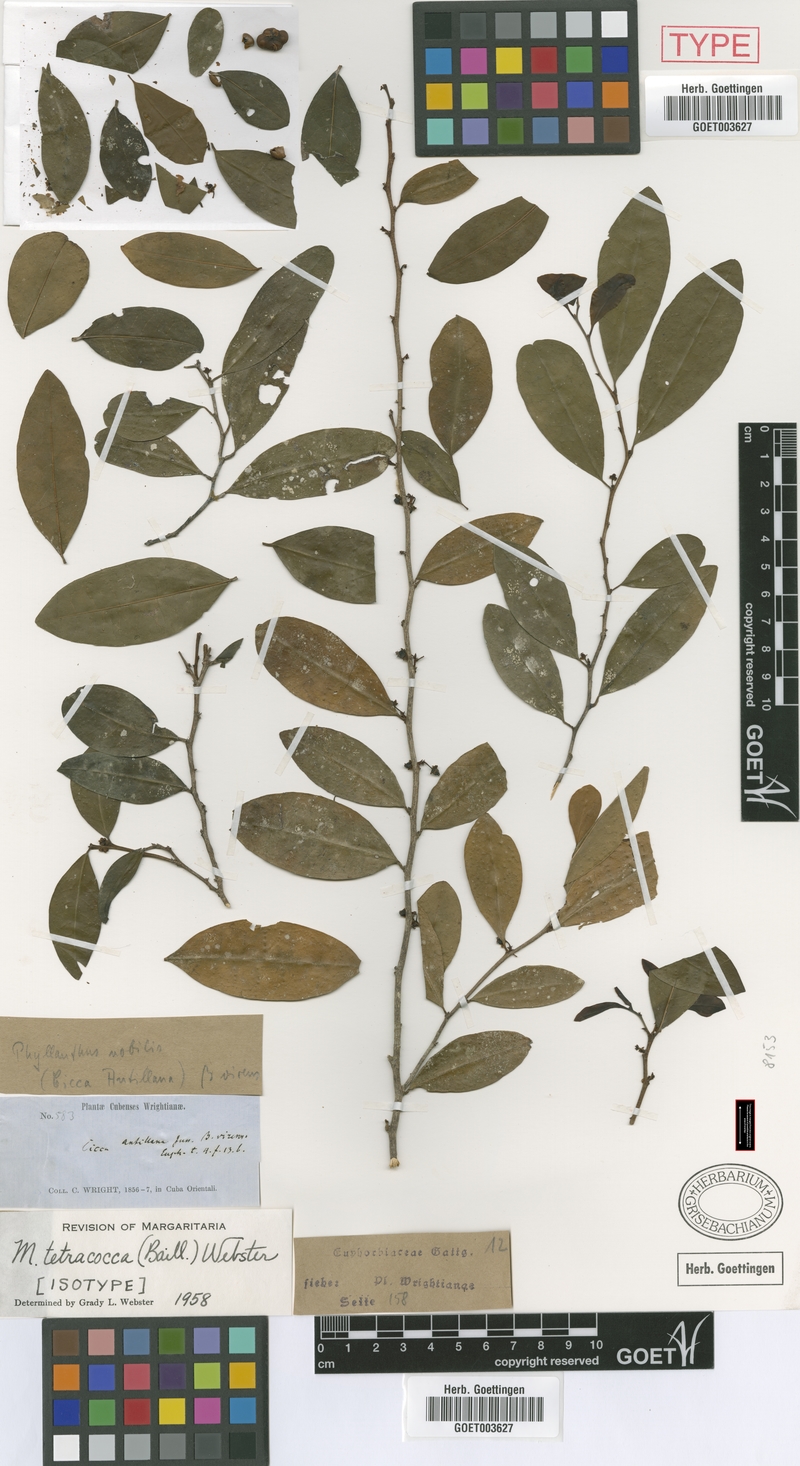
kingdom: Plantae
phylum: Tracheophyta
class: Magnoliopsida
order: Malpighiales
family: Phyllanthaceae
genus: Margaritaria
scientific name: Margaritaria tetracocca
